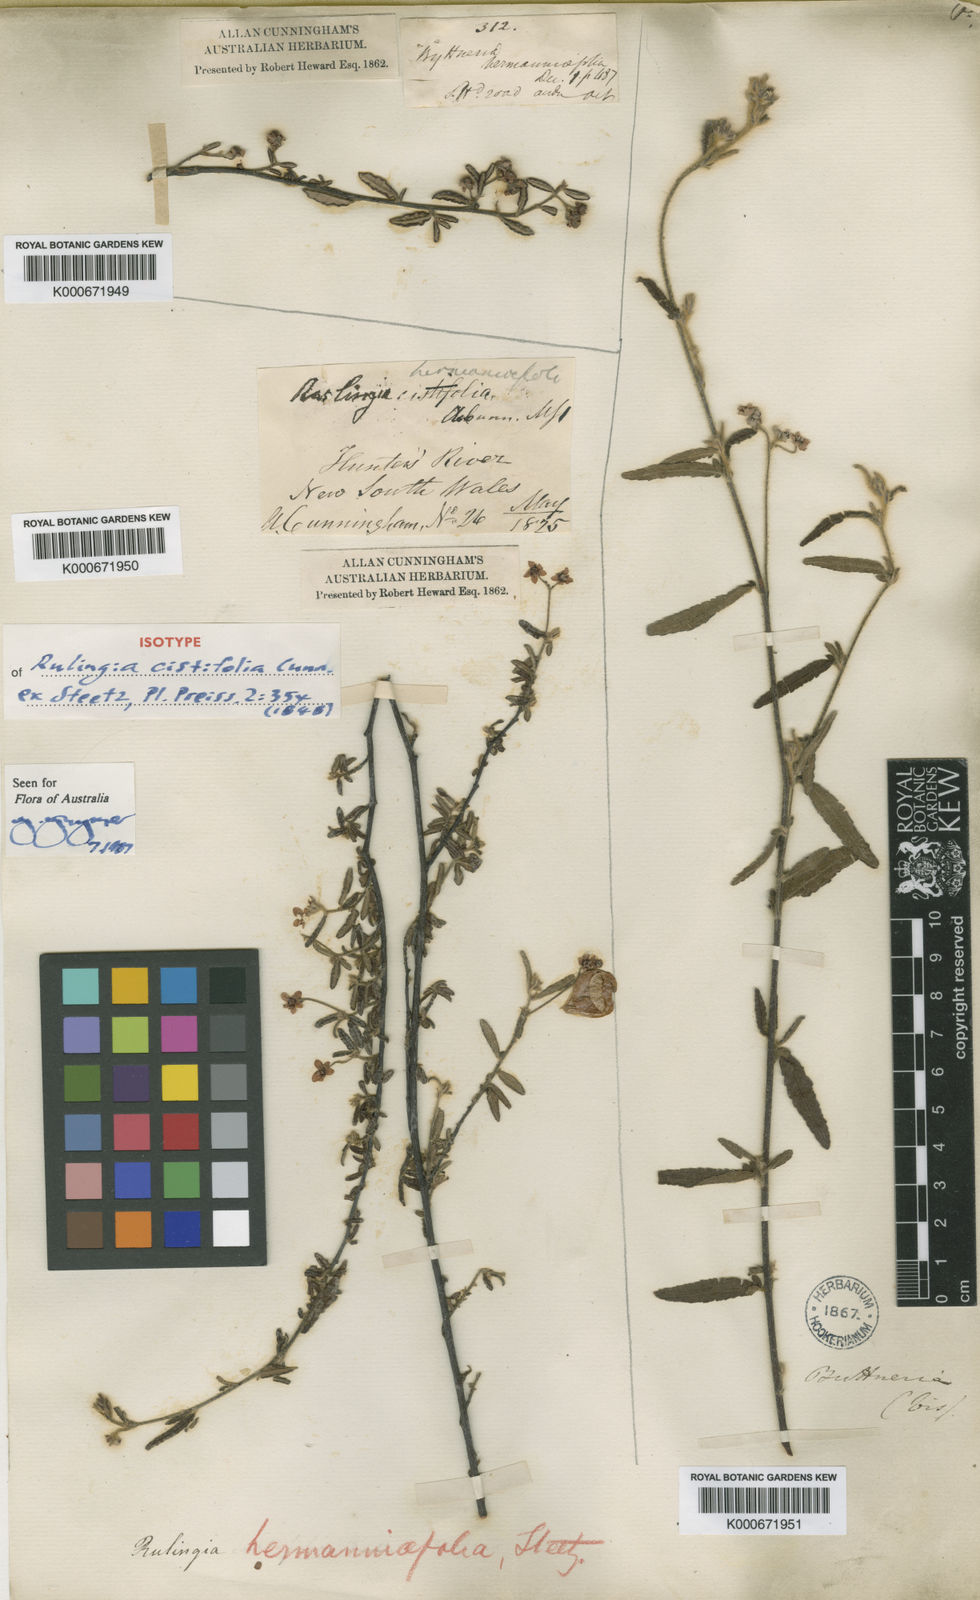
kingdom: Plantae
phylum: Tracheophyta
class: Magnoliopsida
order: Malvales
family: Malvaceae
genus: Commersonia
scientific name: Commersonia rugosa
